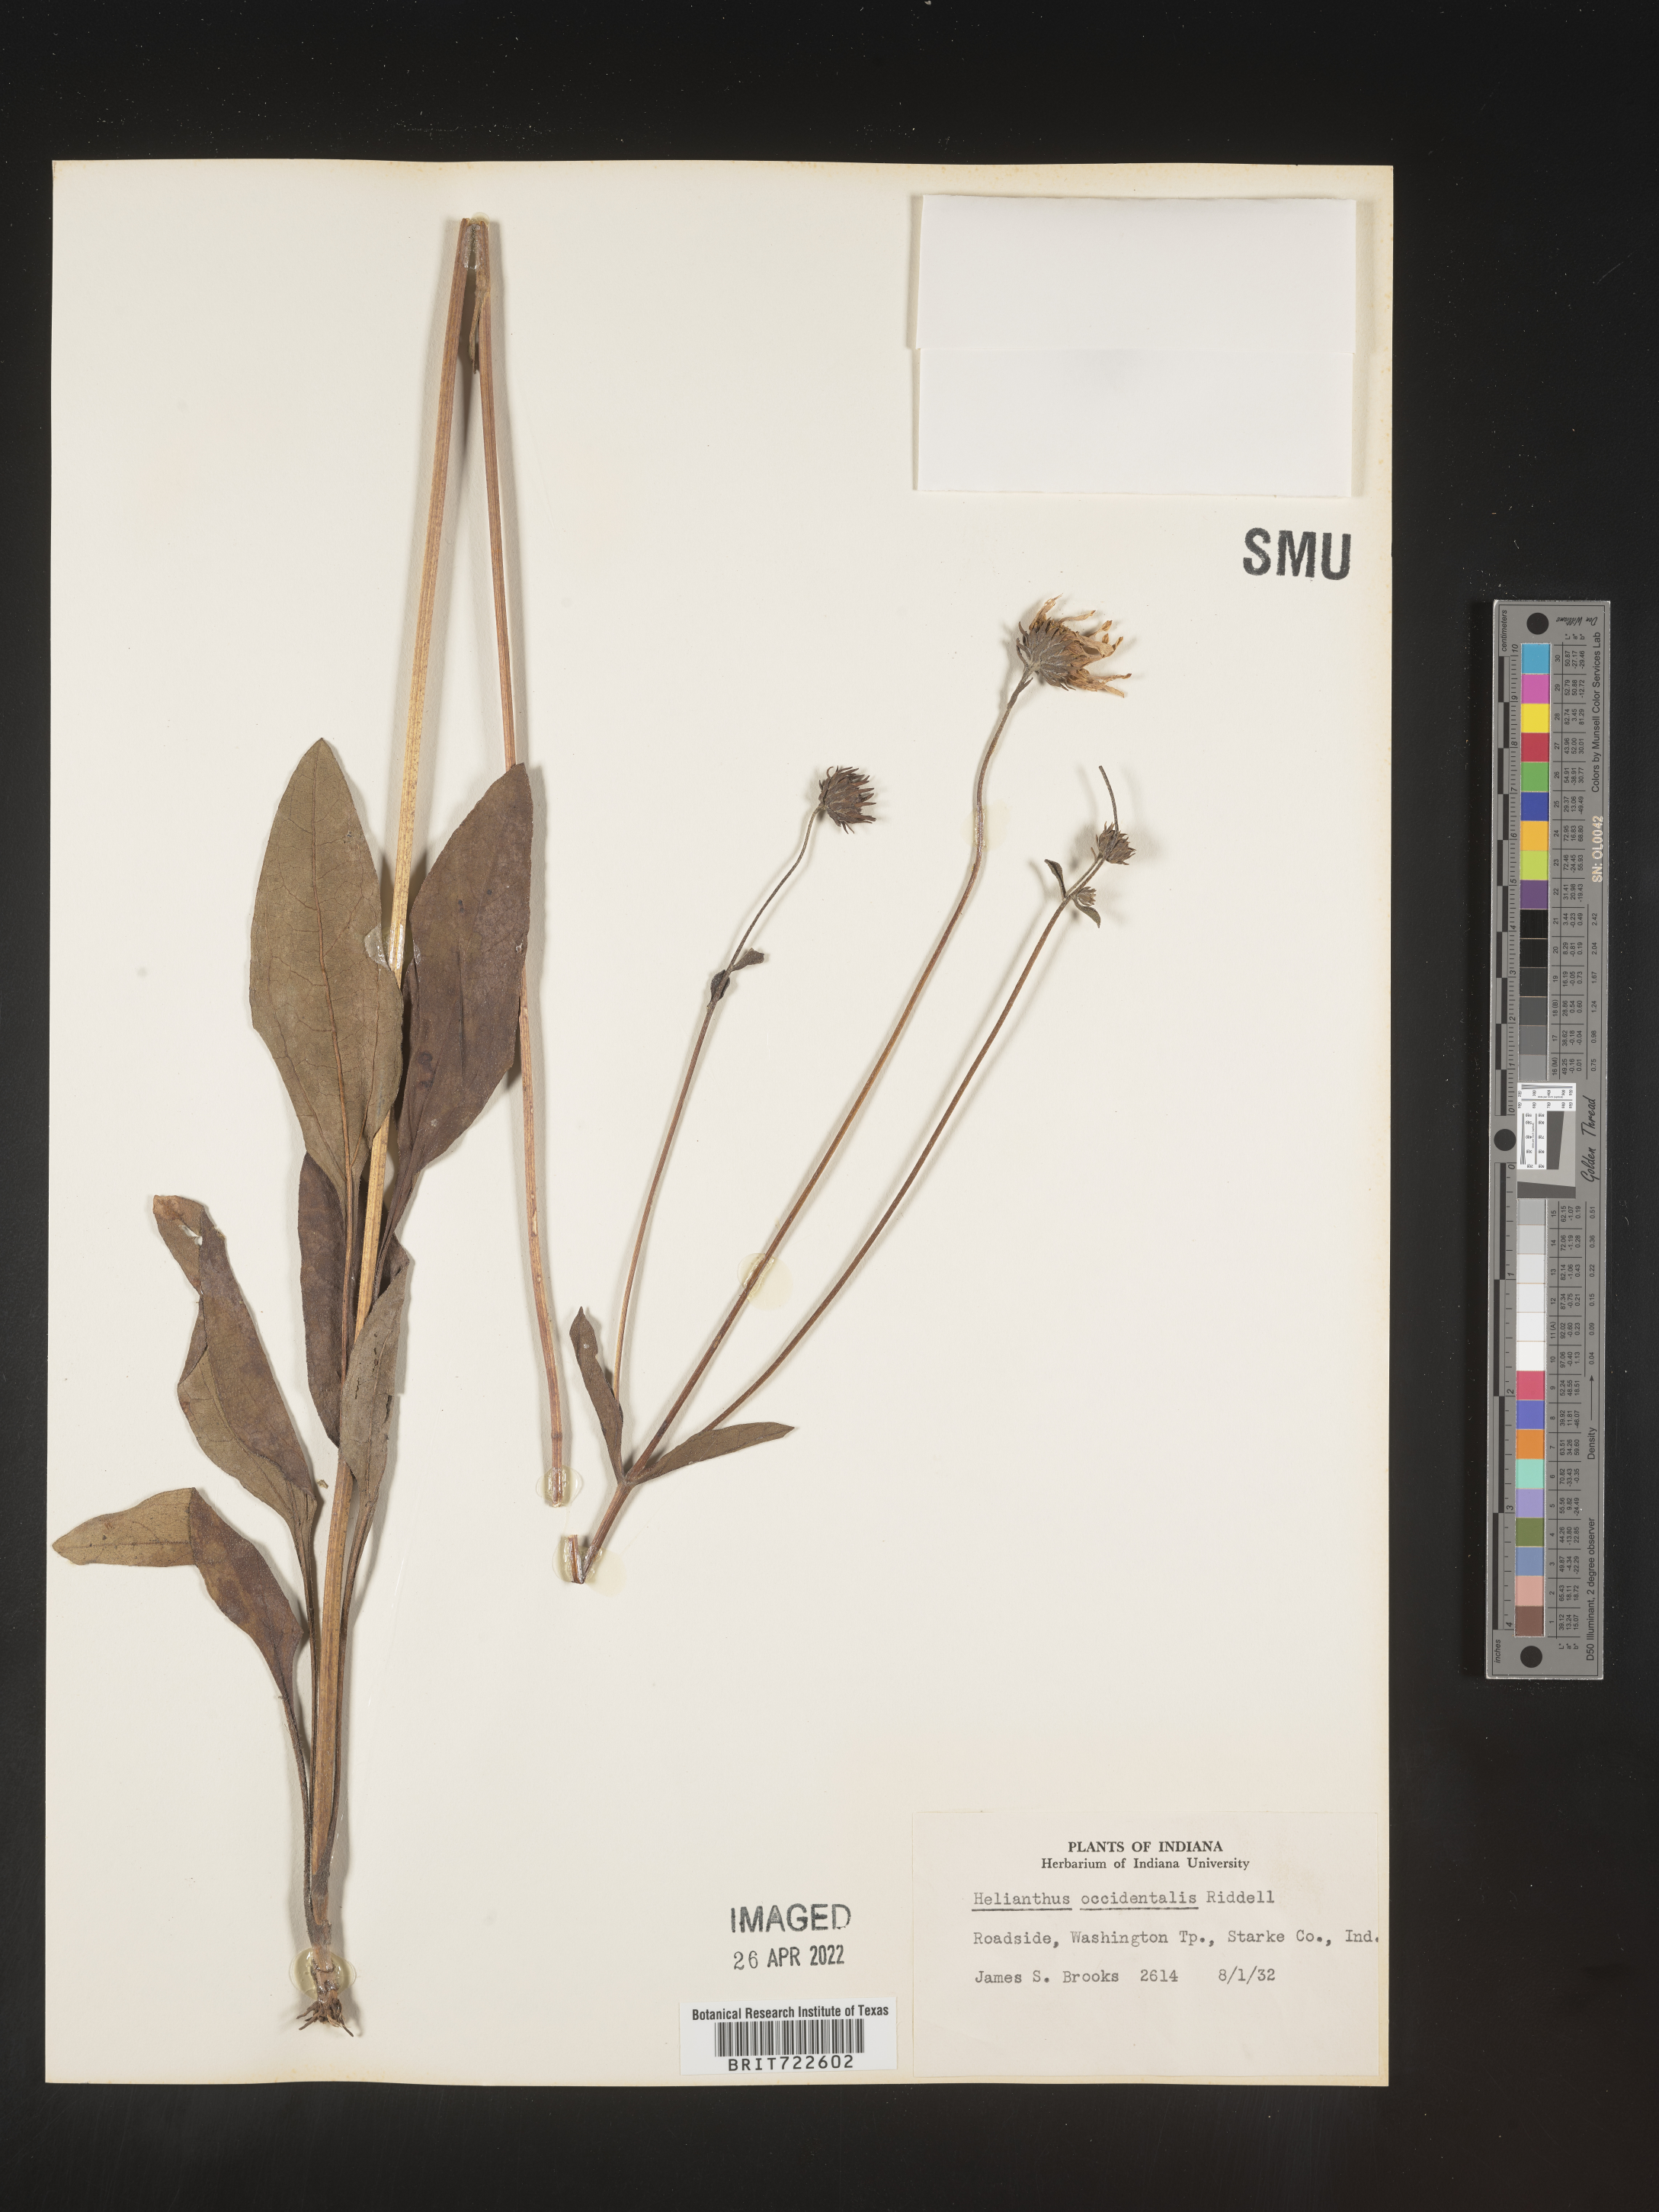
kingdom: Plantae
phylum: Tracheophyta
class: Magnoliopsida
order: Asterales
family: Asteraceae
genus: Helianthus
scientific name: Helianthus occidentalis
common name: Western sunflower
